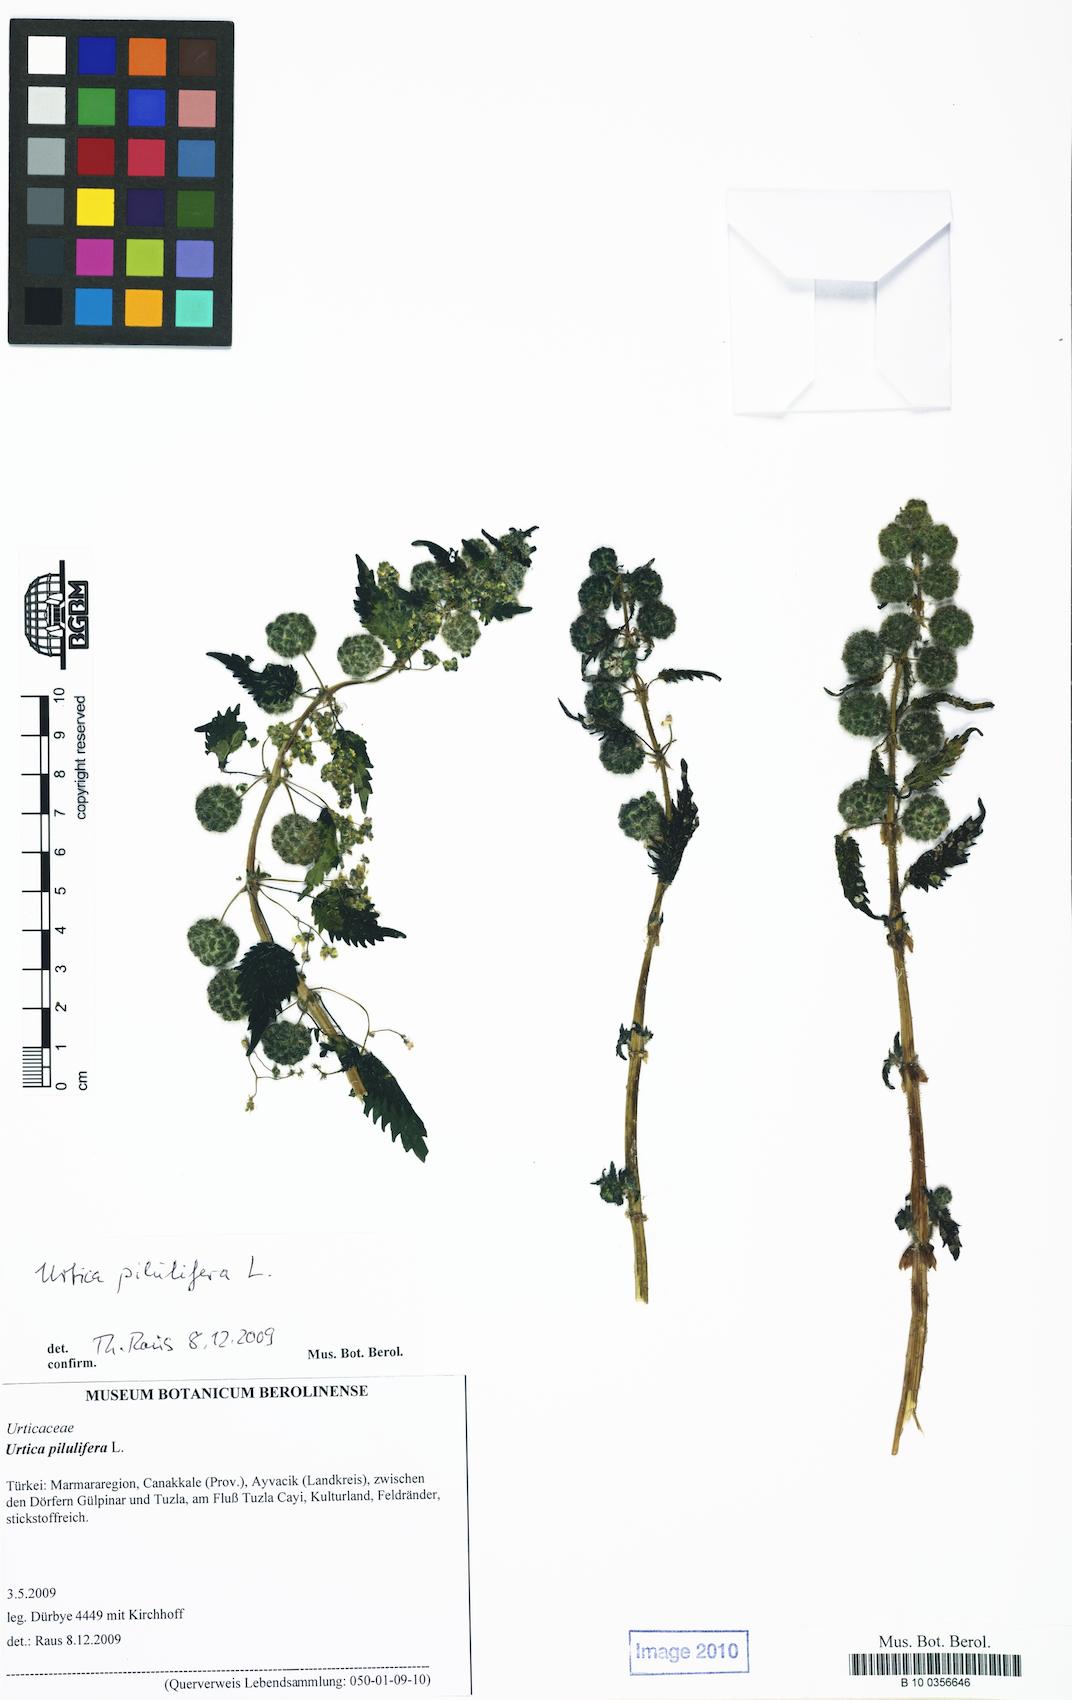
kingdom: Plantae
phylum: Tracheophyta
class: Magnoliopsida
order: Rosales
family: Urticaceae
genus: Urtica
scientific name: Urtica pilulifera
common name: Roman nettle
